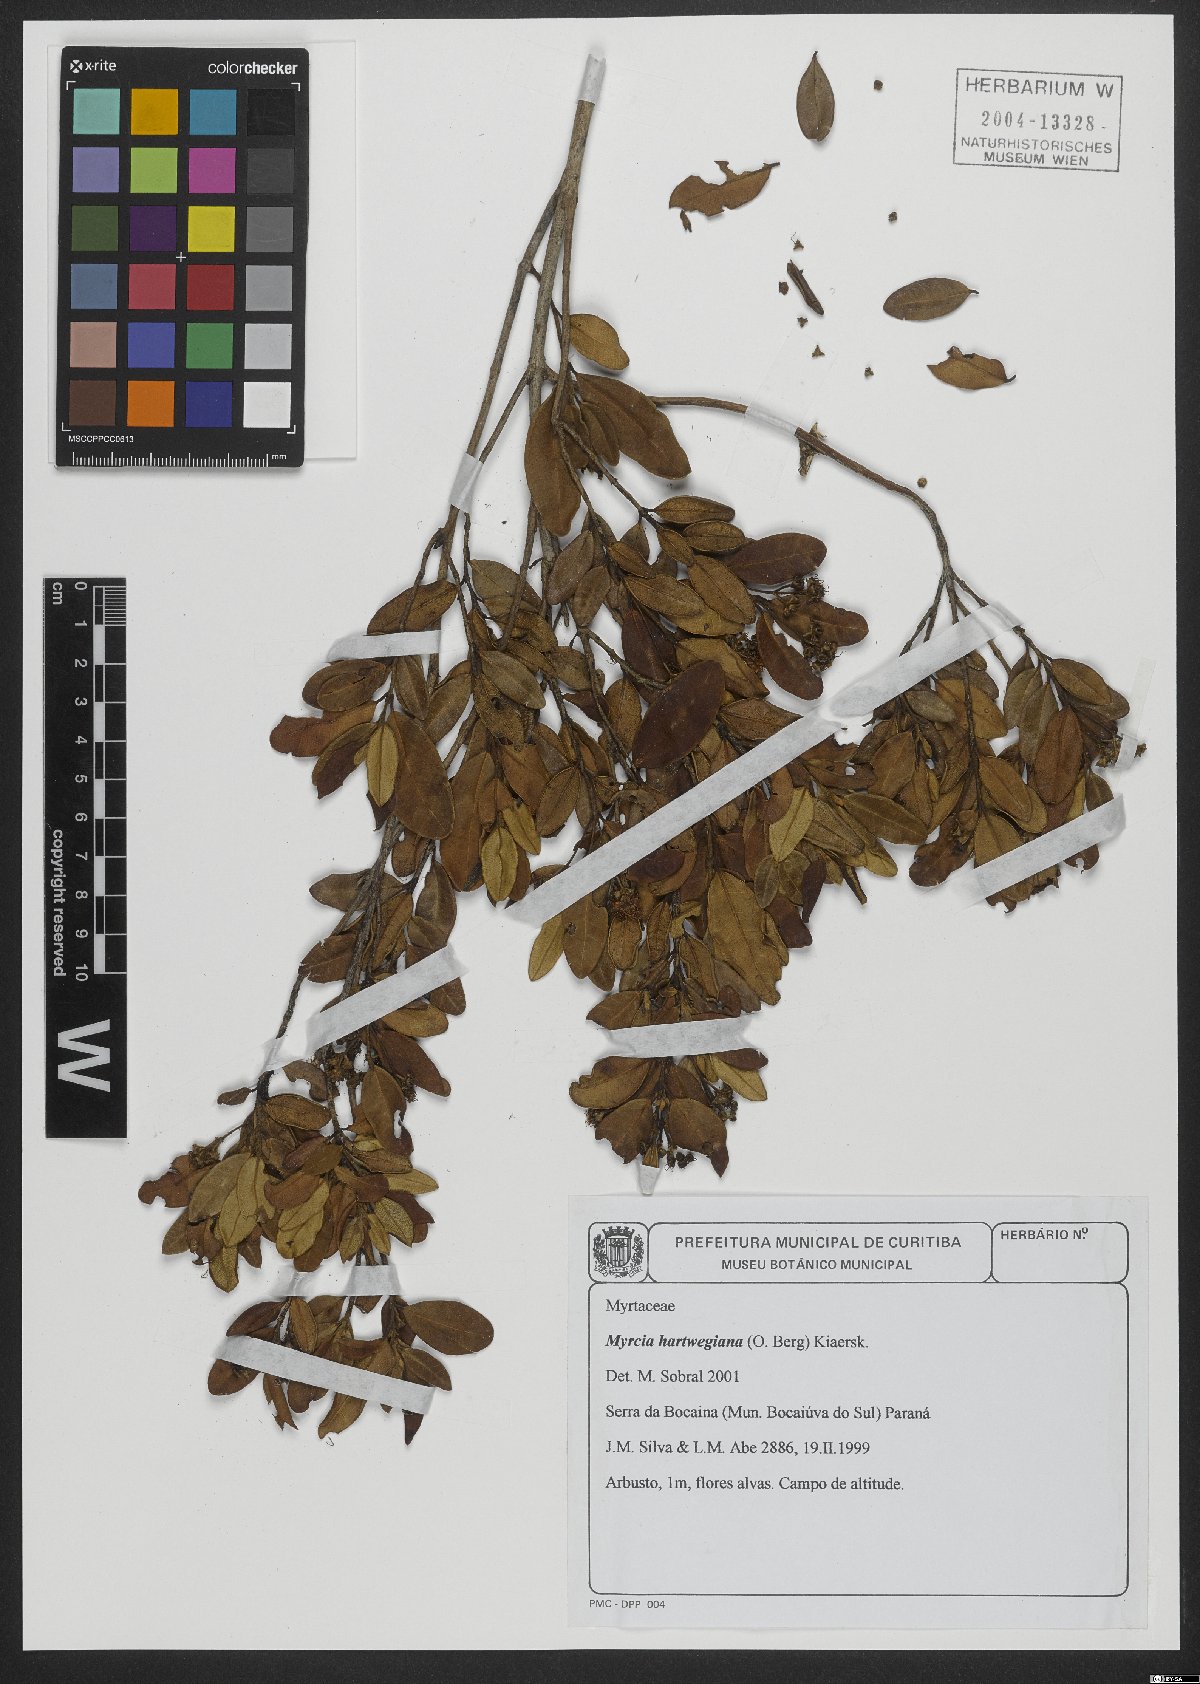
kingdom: Plantae
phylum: Tracheophyta
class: Magnoliopsida
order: Myrtales
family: Myrtaceae
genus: Myrcia
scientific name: Myrcia hartwegiana
